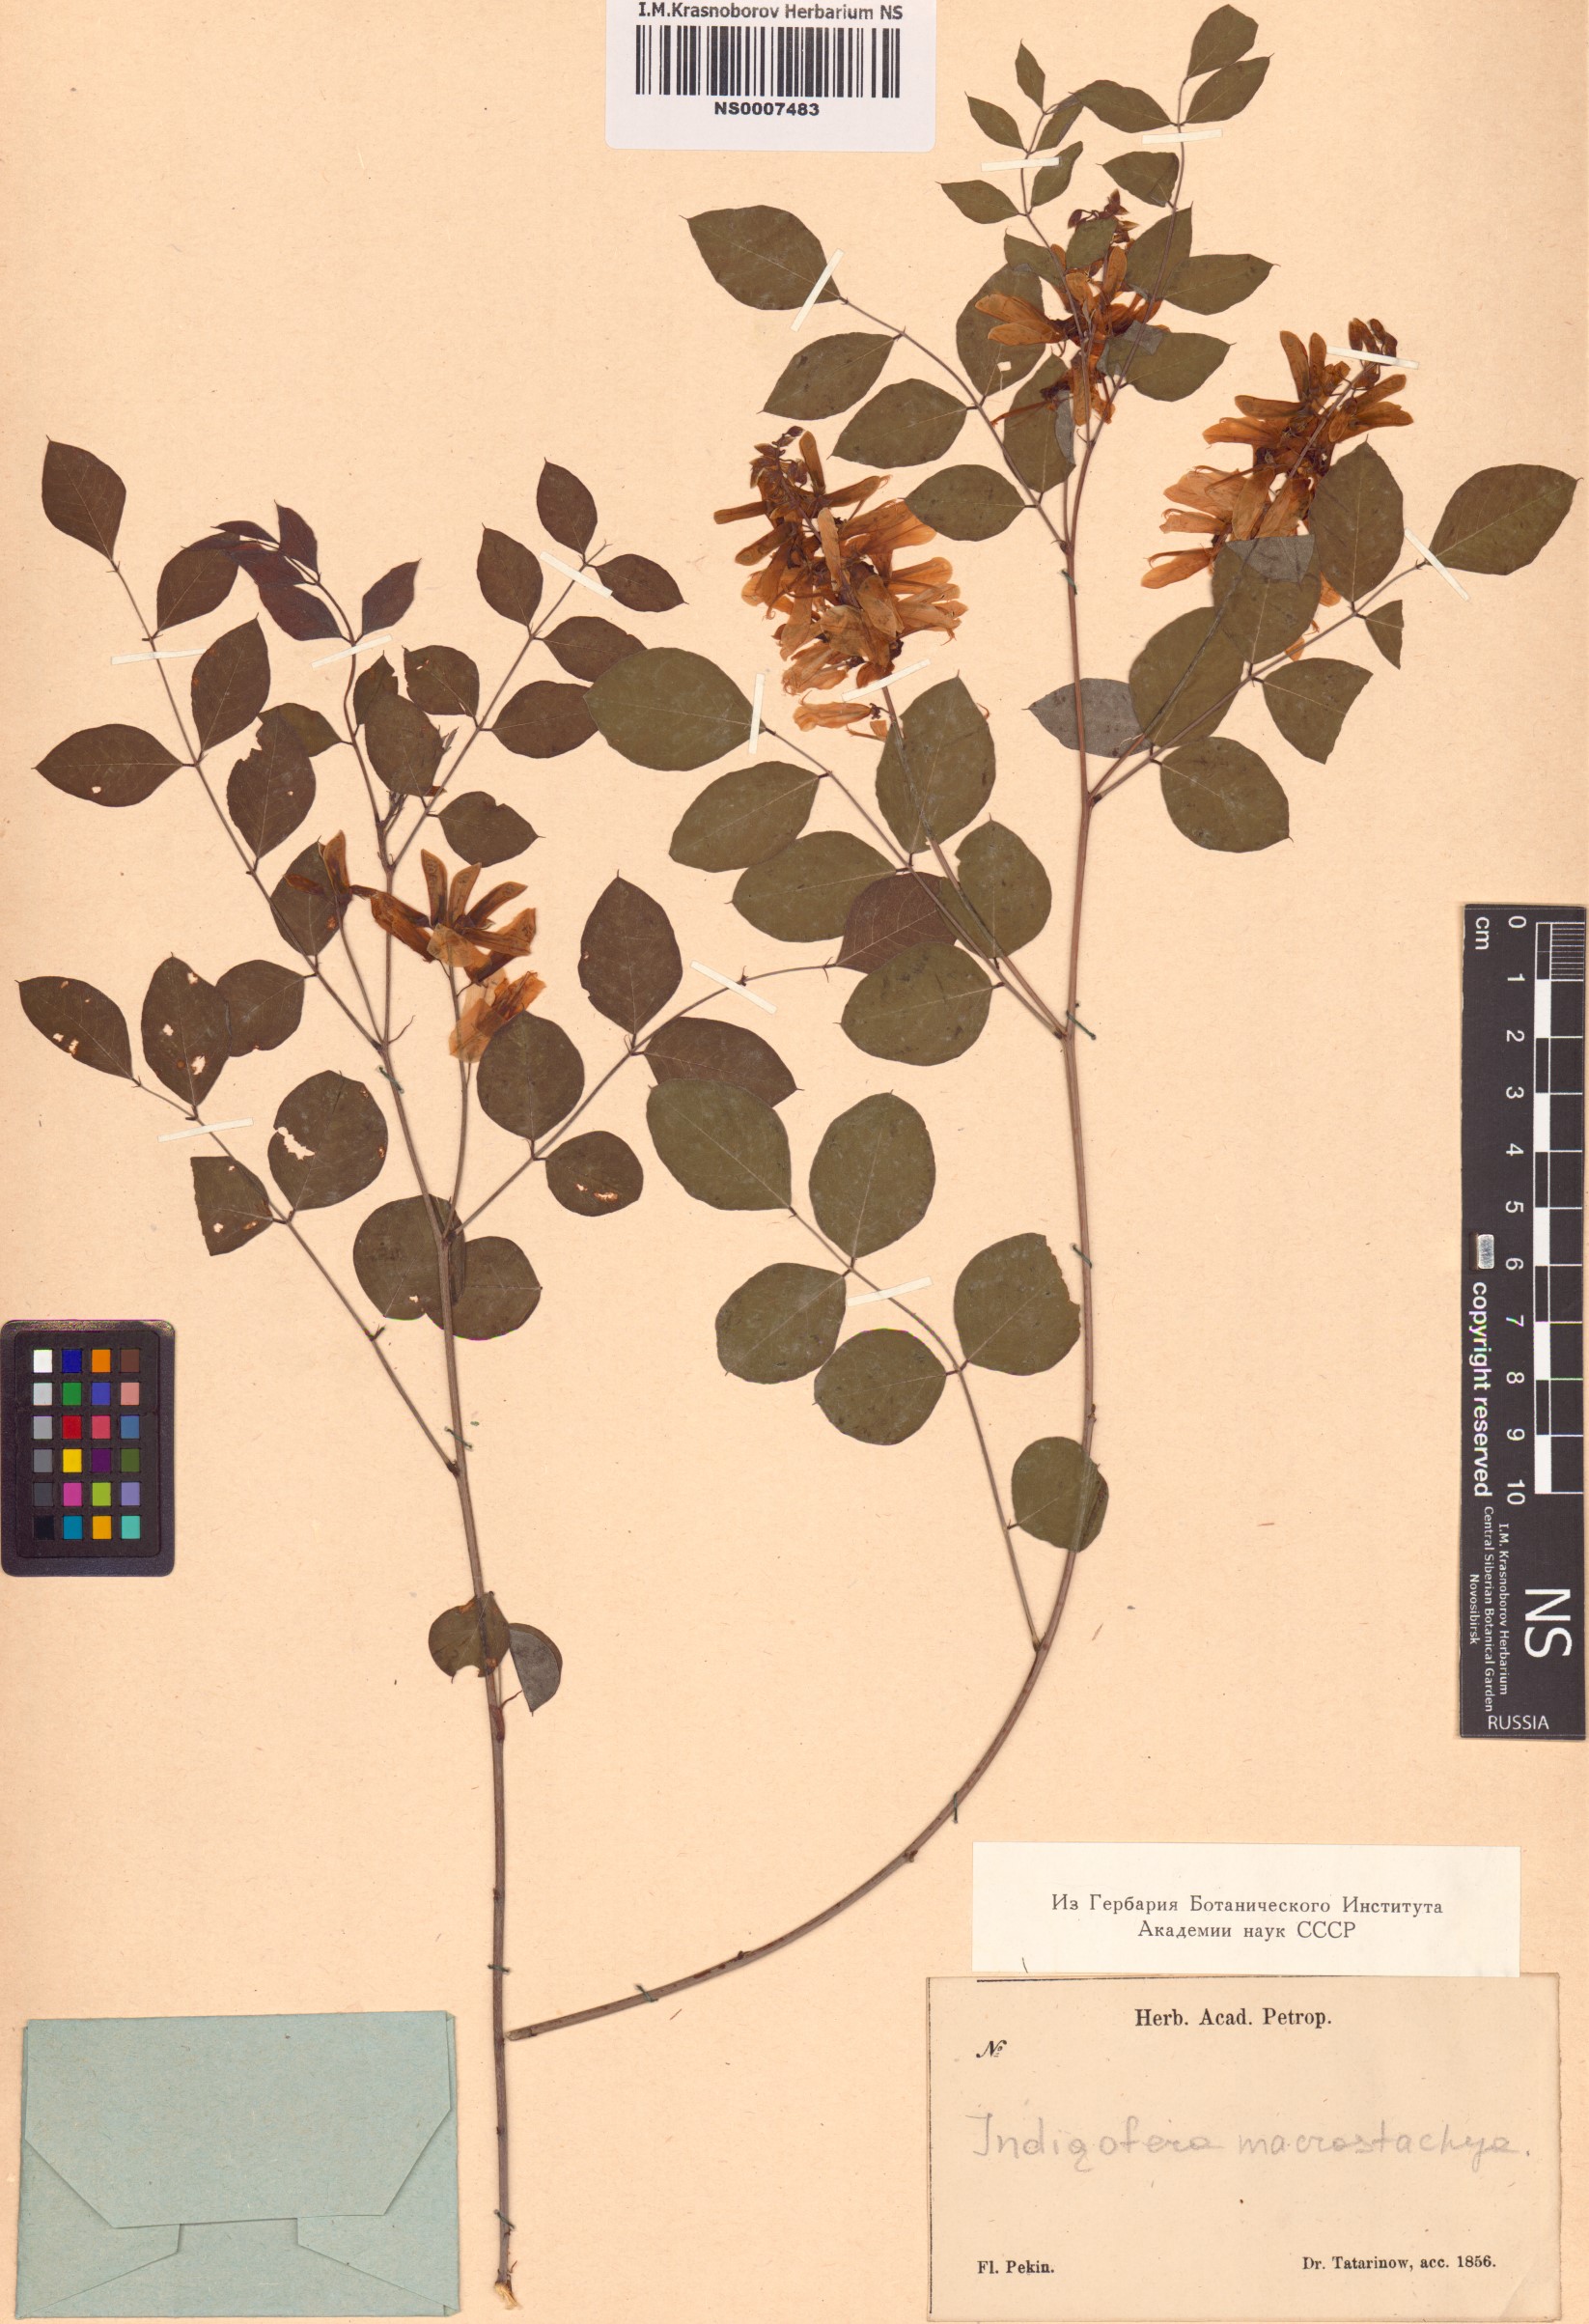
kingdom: Plantae
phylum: Tracheophyta
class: Magnoliopsida
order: Fabales
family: Fabaceae
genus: Indigofera
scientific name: Indigofera heterantha
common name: Himalayan indigo
